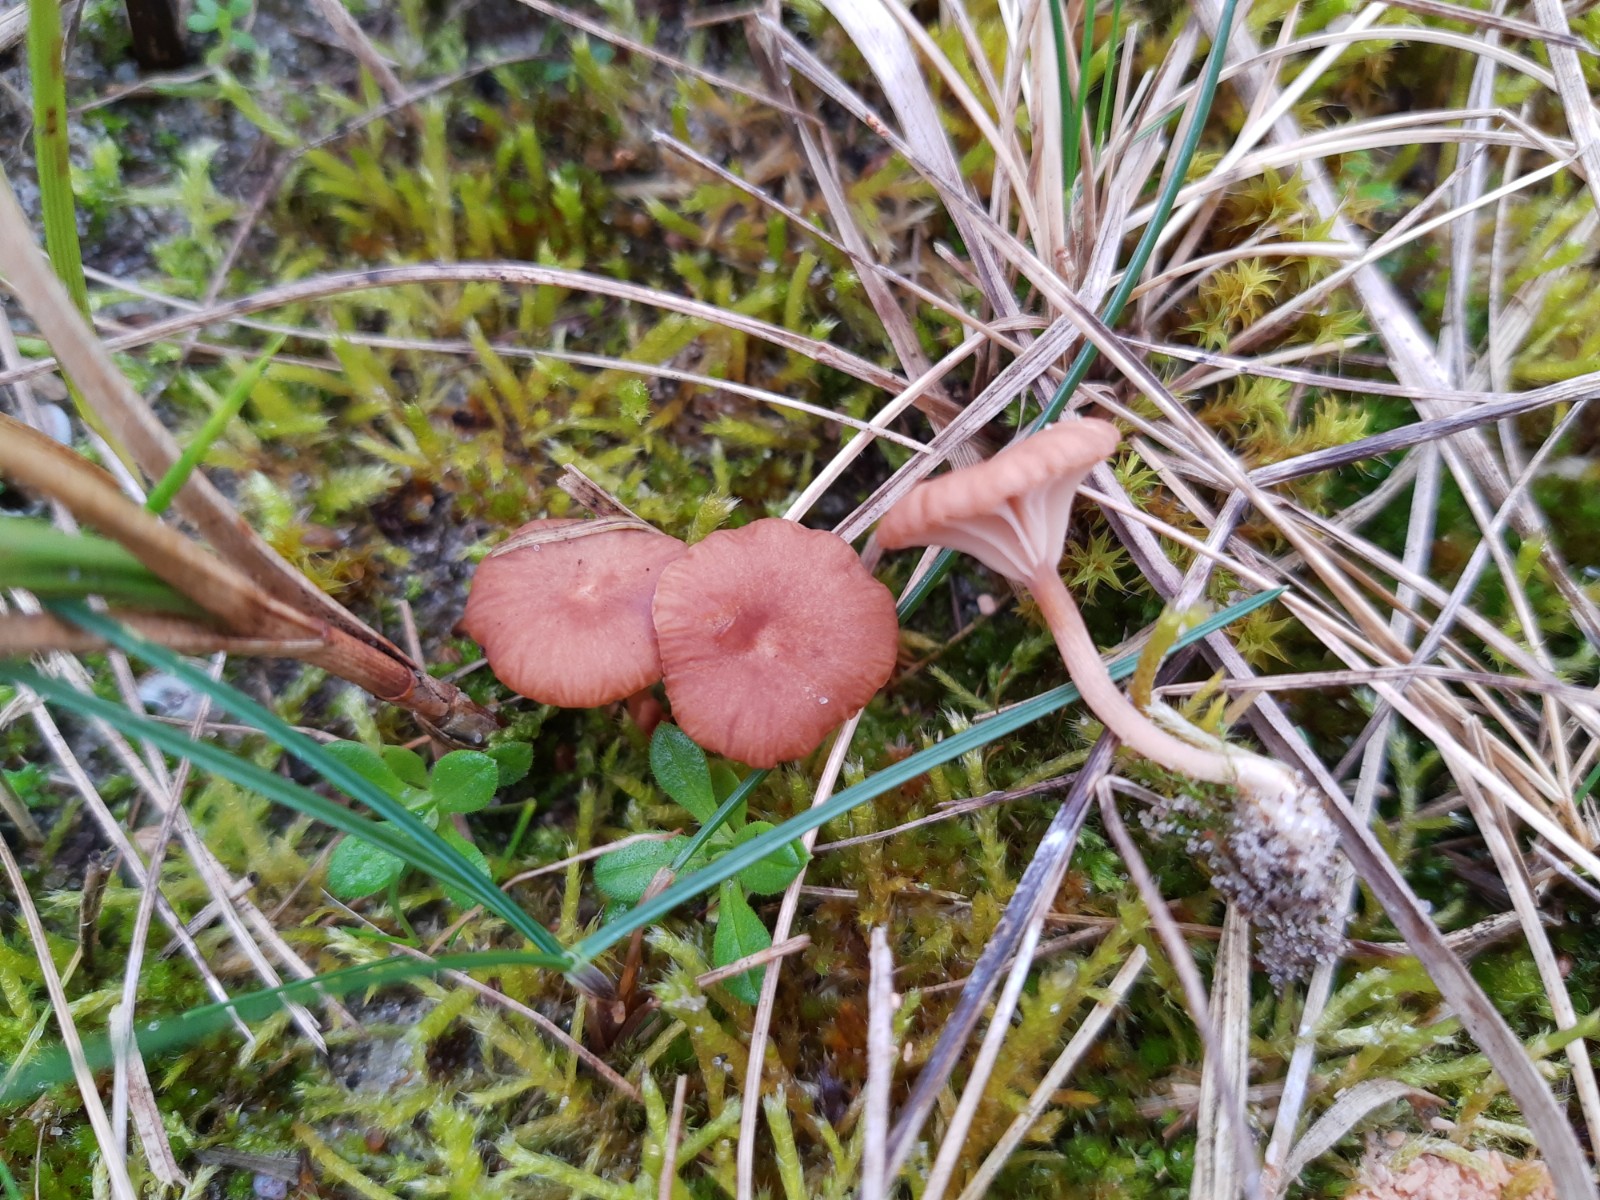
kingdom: Fungi
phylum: Basidiomycota
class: Agaricomycetes
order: Agaricales
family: Tricholomataceae
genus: Omphalina
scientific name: Omphalina pyxidata
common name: rødbrun navlehat
